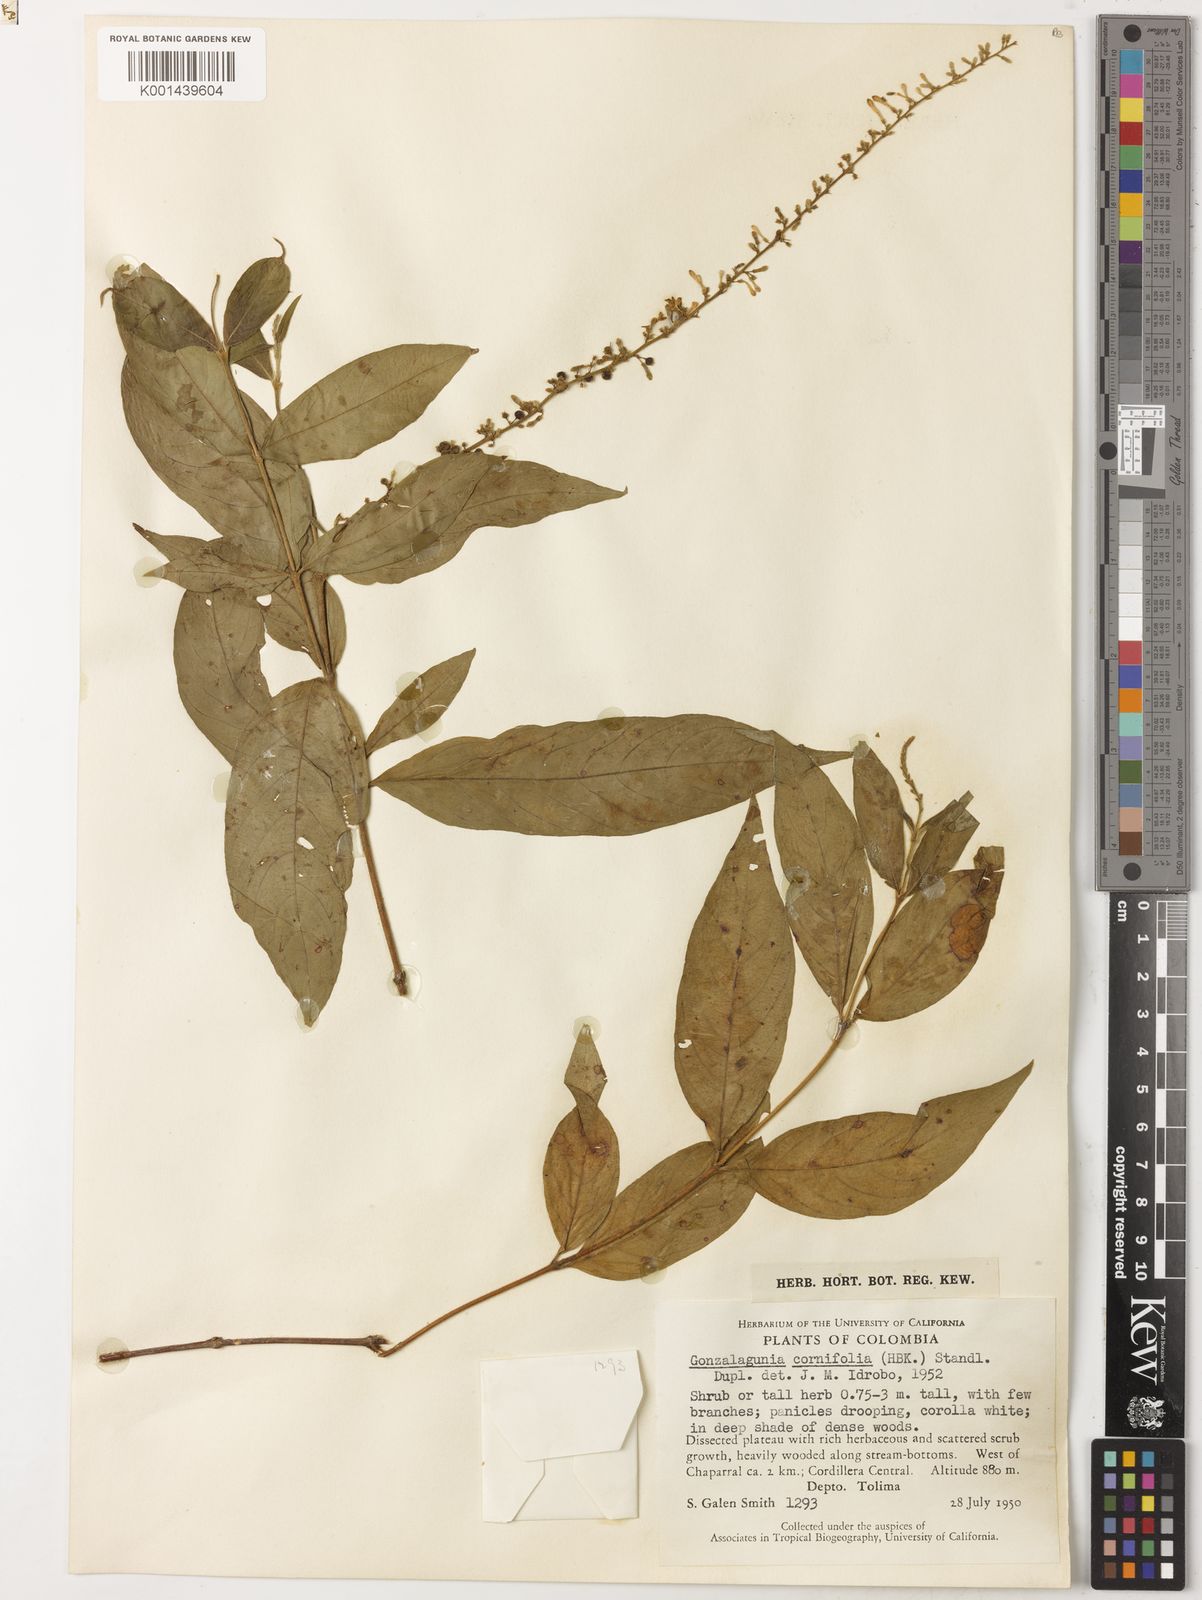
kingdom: Plantae
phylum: Tracheophyta
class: Magnoliopsida
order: Gentianales
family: Rubiaceae
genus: Gonzalagunia
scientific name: Gonzalagunia cornifolia
